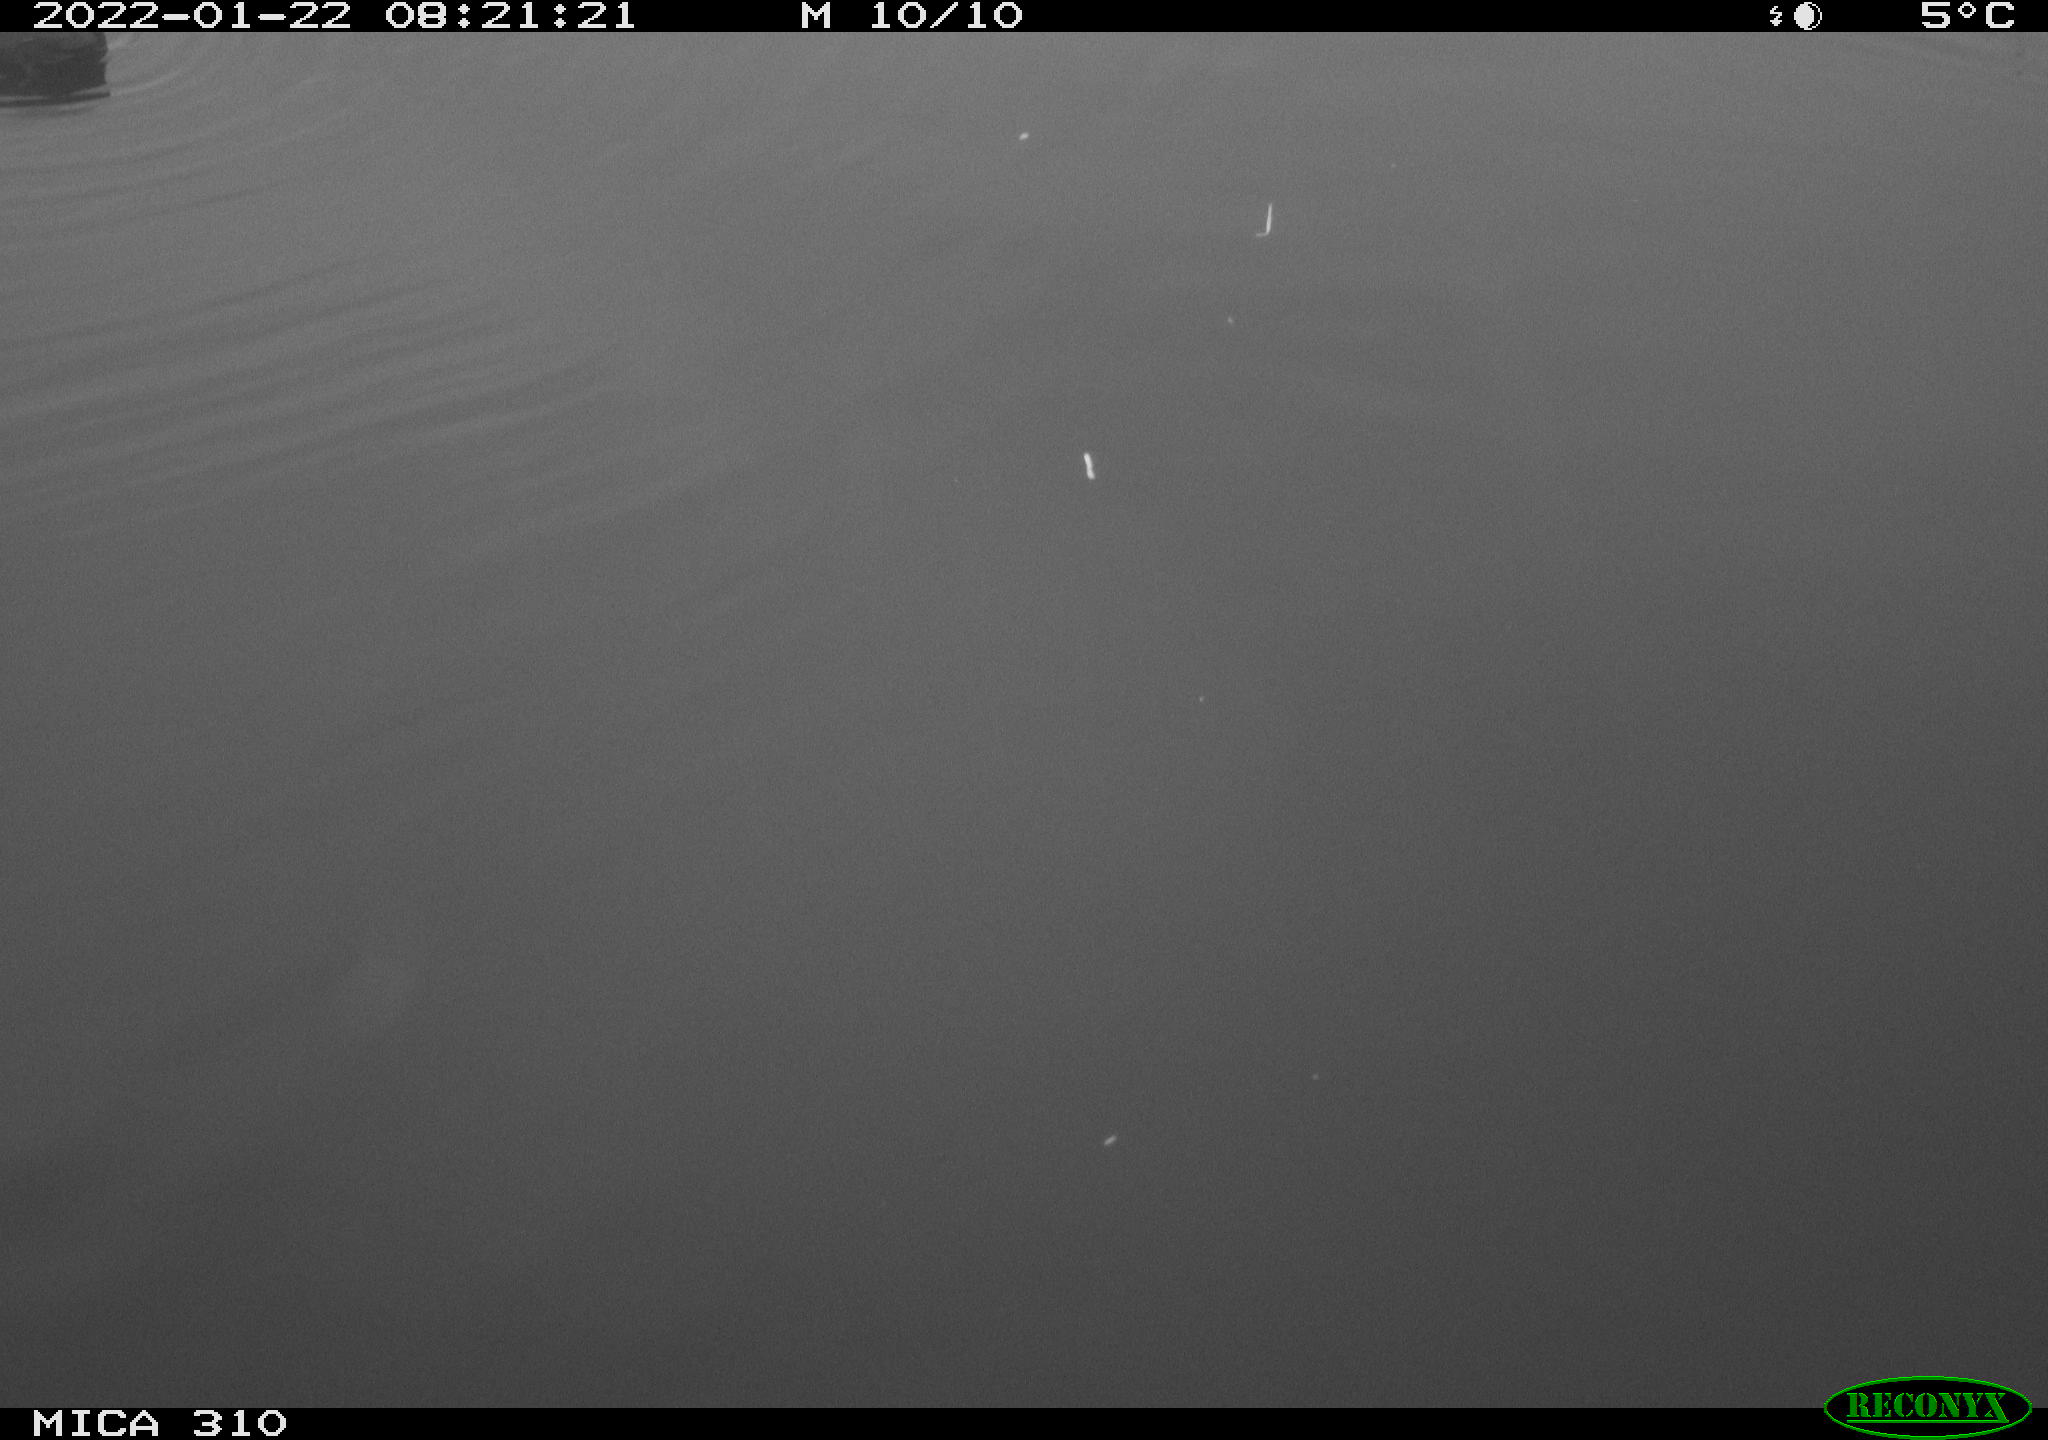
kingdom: Animalia
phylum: Chordata
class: Aves
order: Gruiformes
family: Rallidae
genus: Fulica
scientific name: Fulica atra
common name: Eurasian coot
